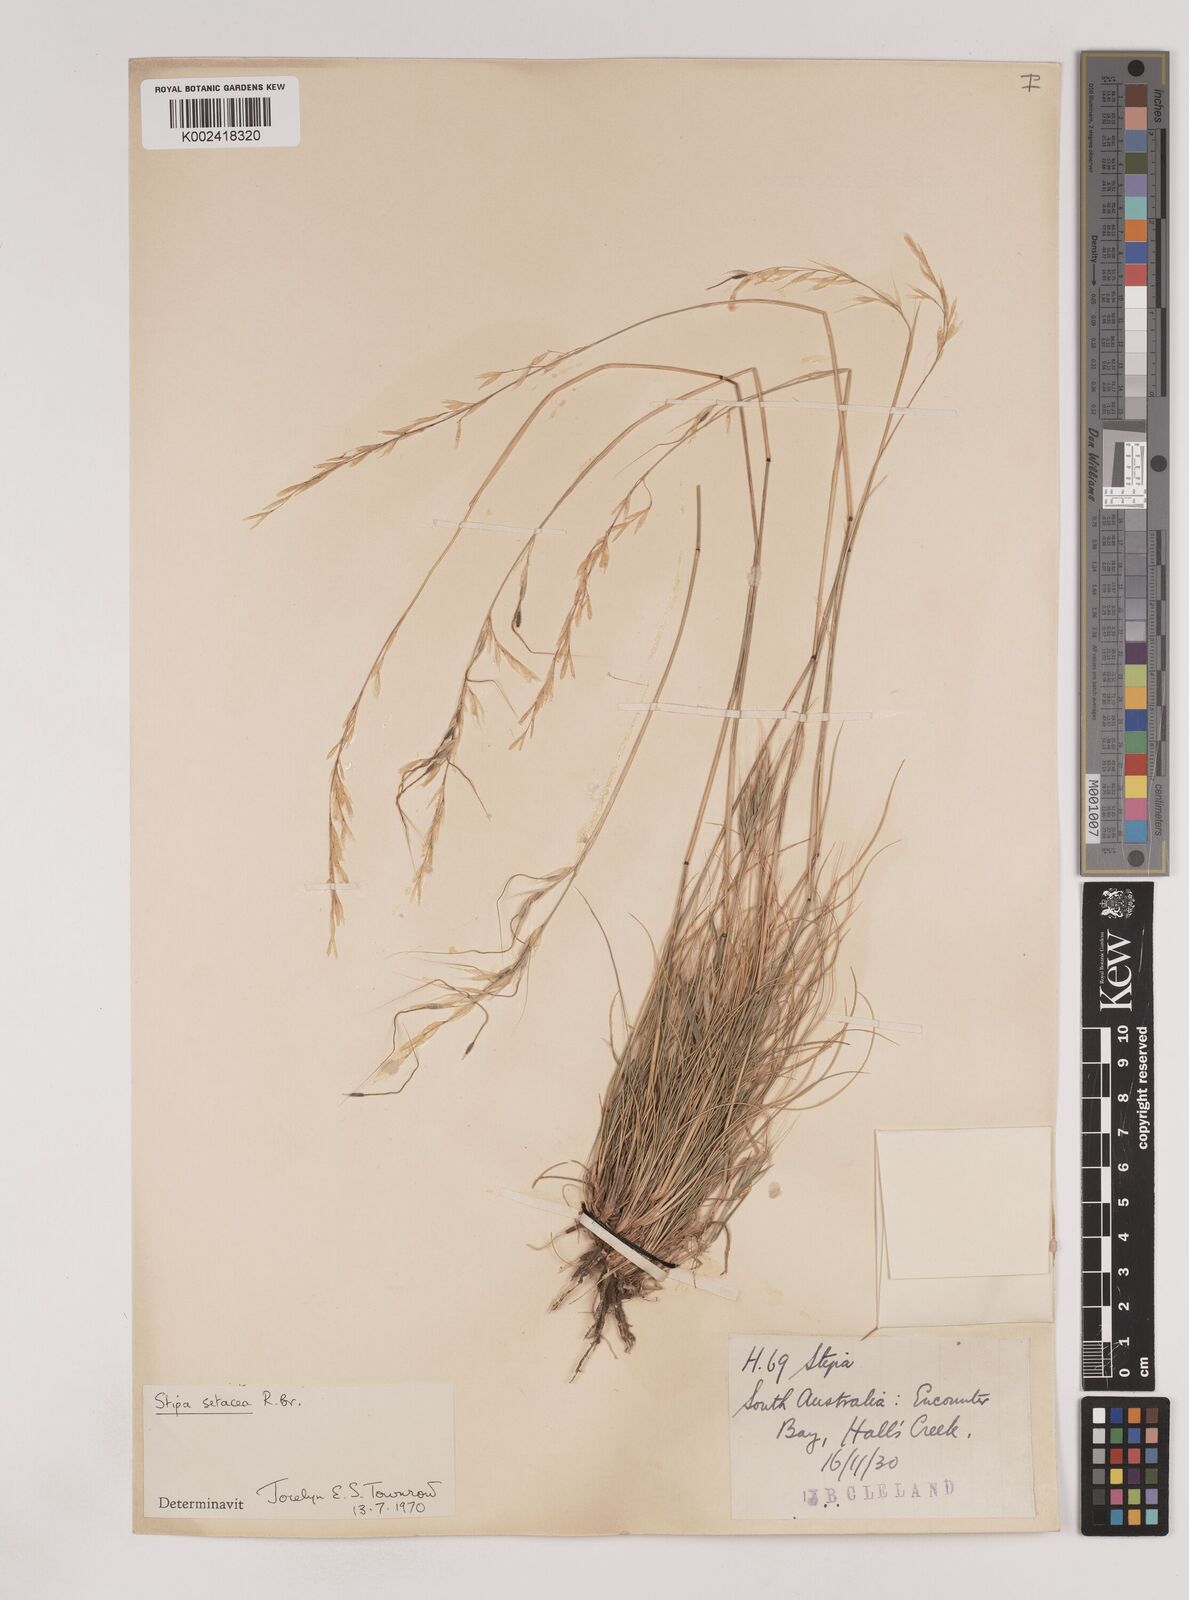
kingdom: Plantae
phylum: Tracheophyta
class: Liliopsida
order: Poales
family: Poaceae
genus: Piptochaetium
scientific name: Piptochaetium
